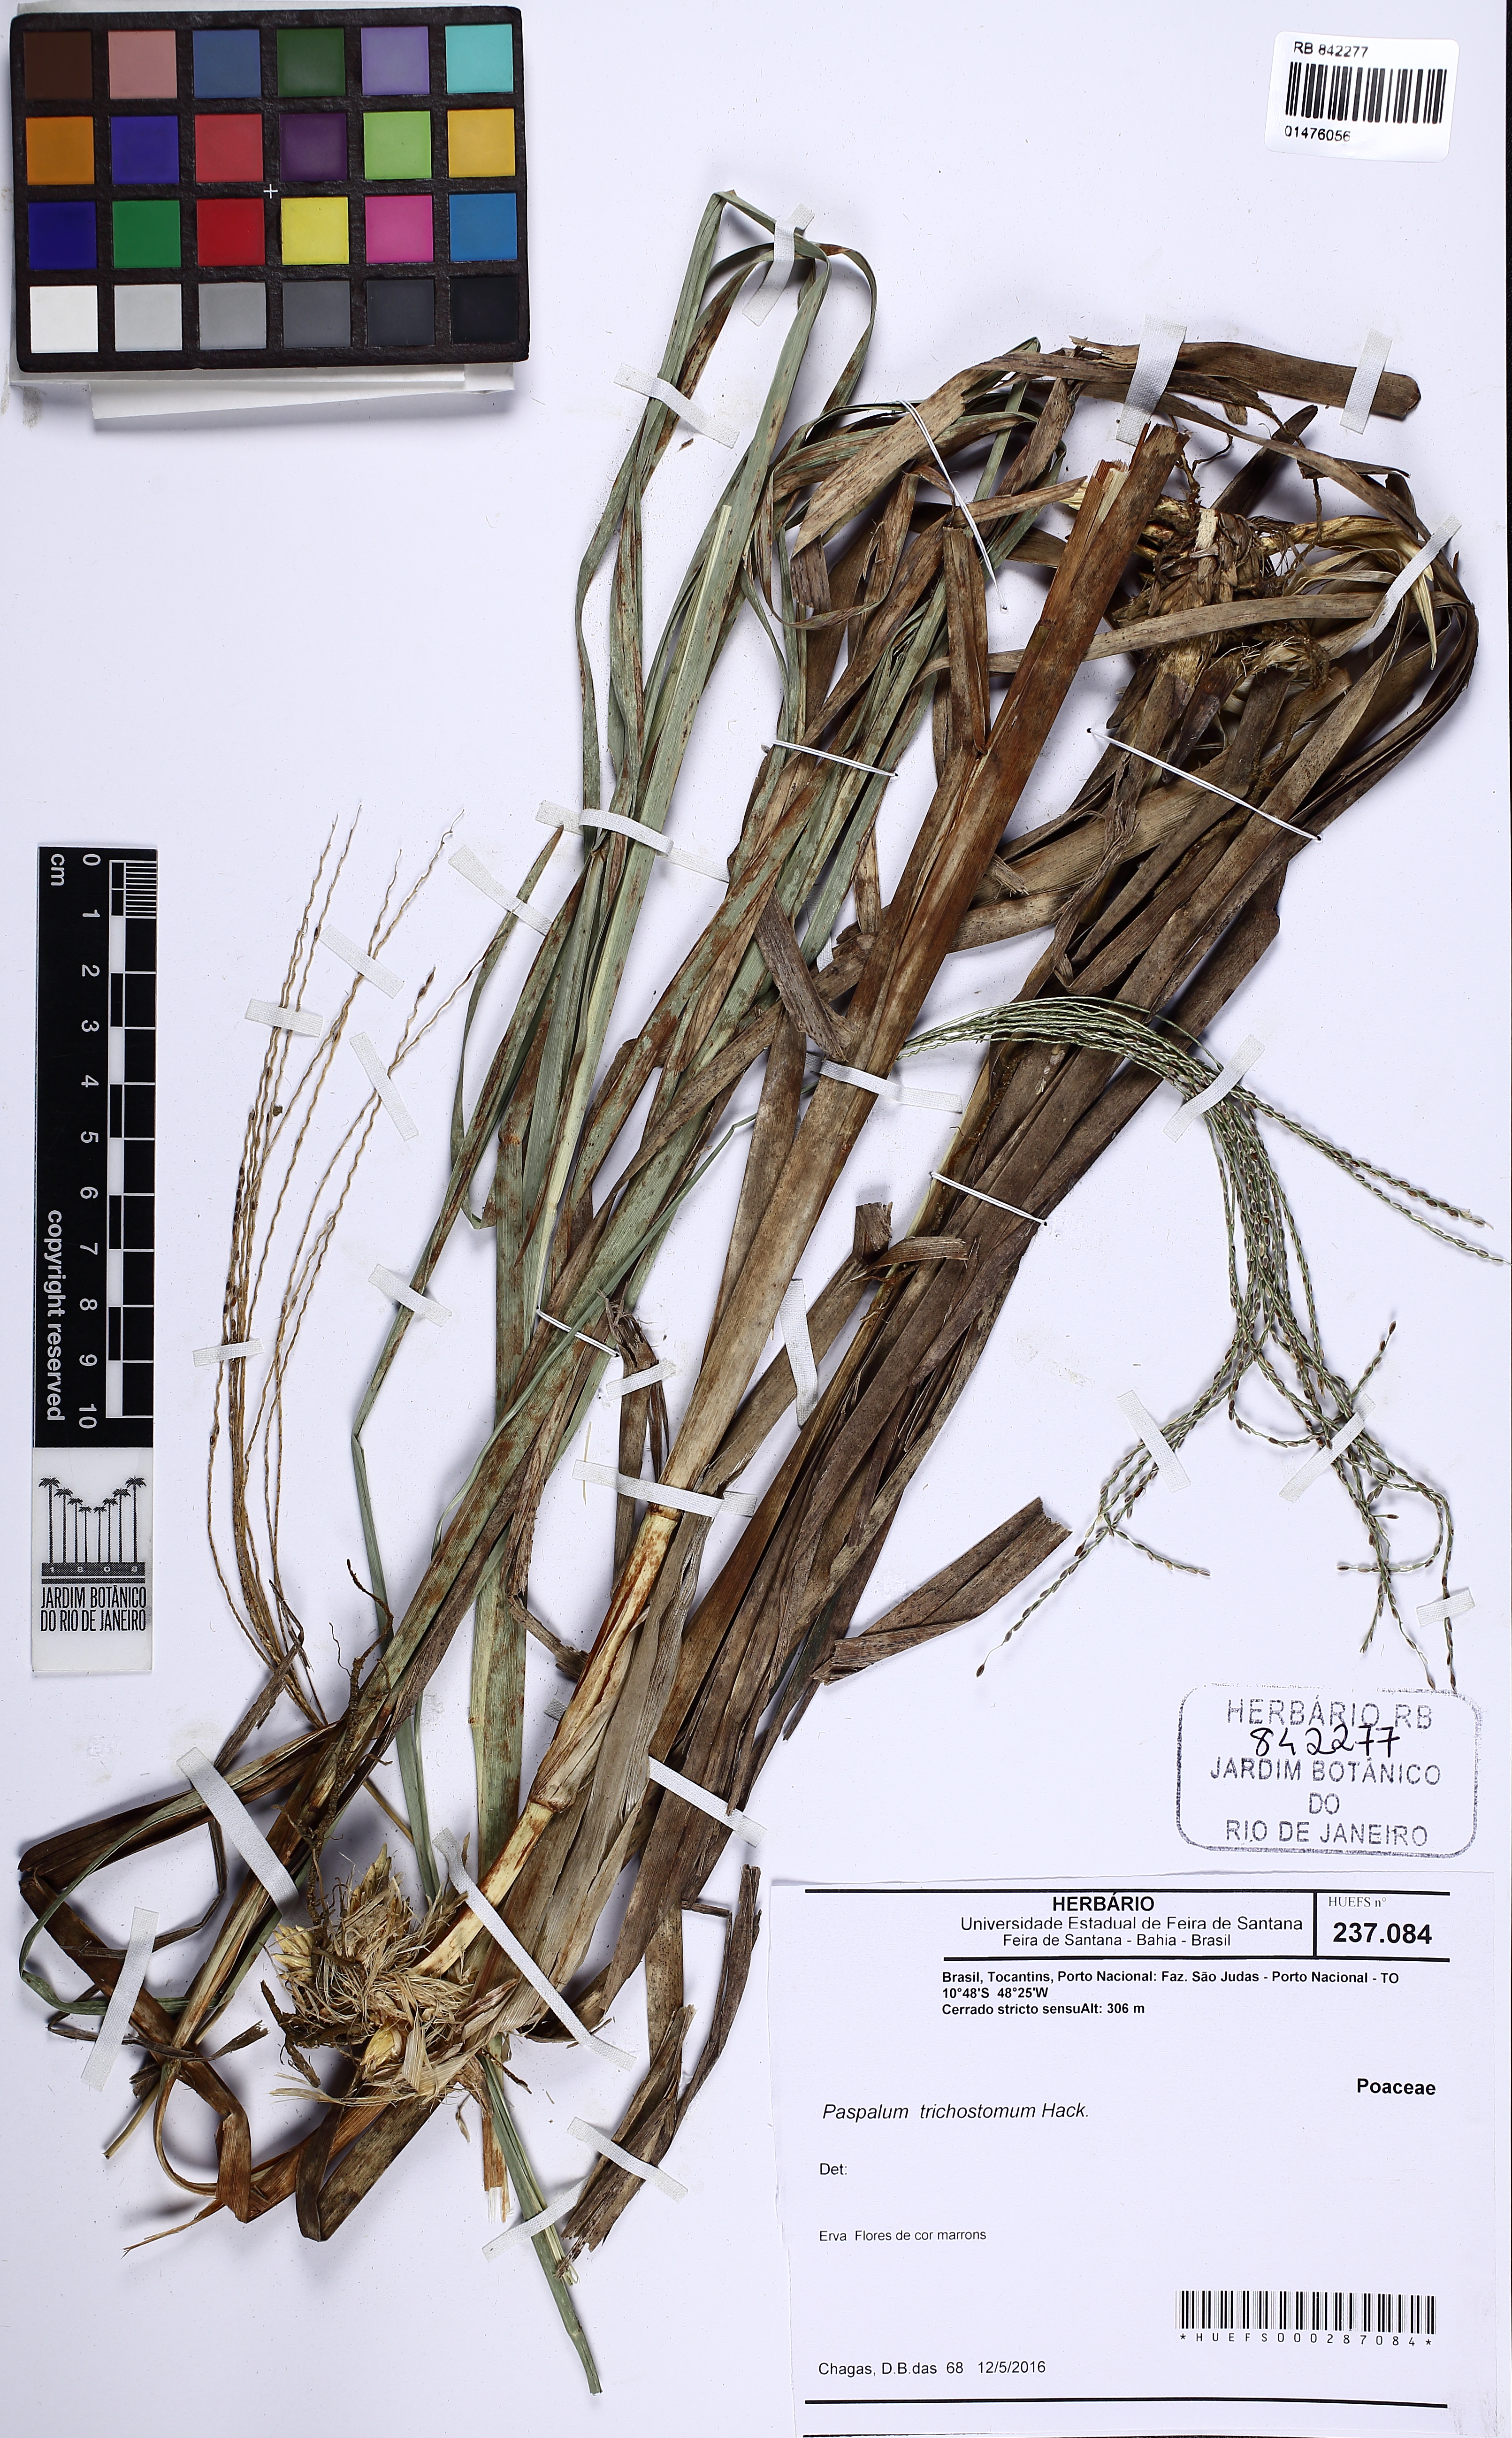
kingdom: Plantae
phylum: Tracheophyta
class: Liliopsida
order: Poales
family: Poaceae
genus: Paspalum
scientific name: Paspalum trichostomum
